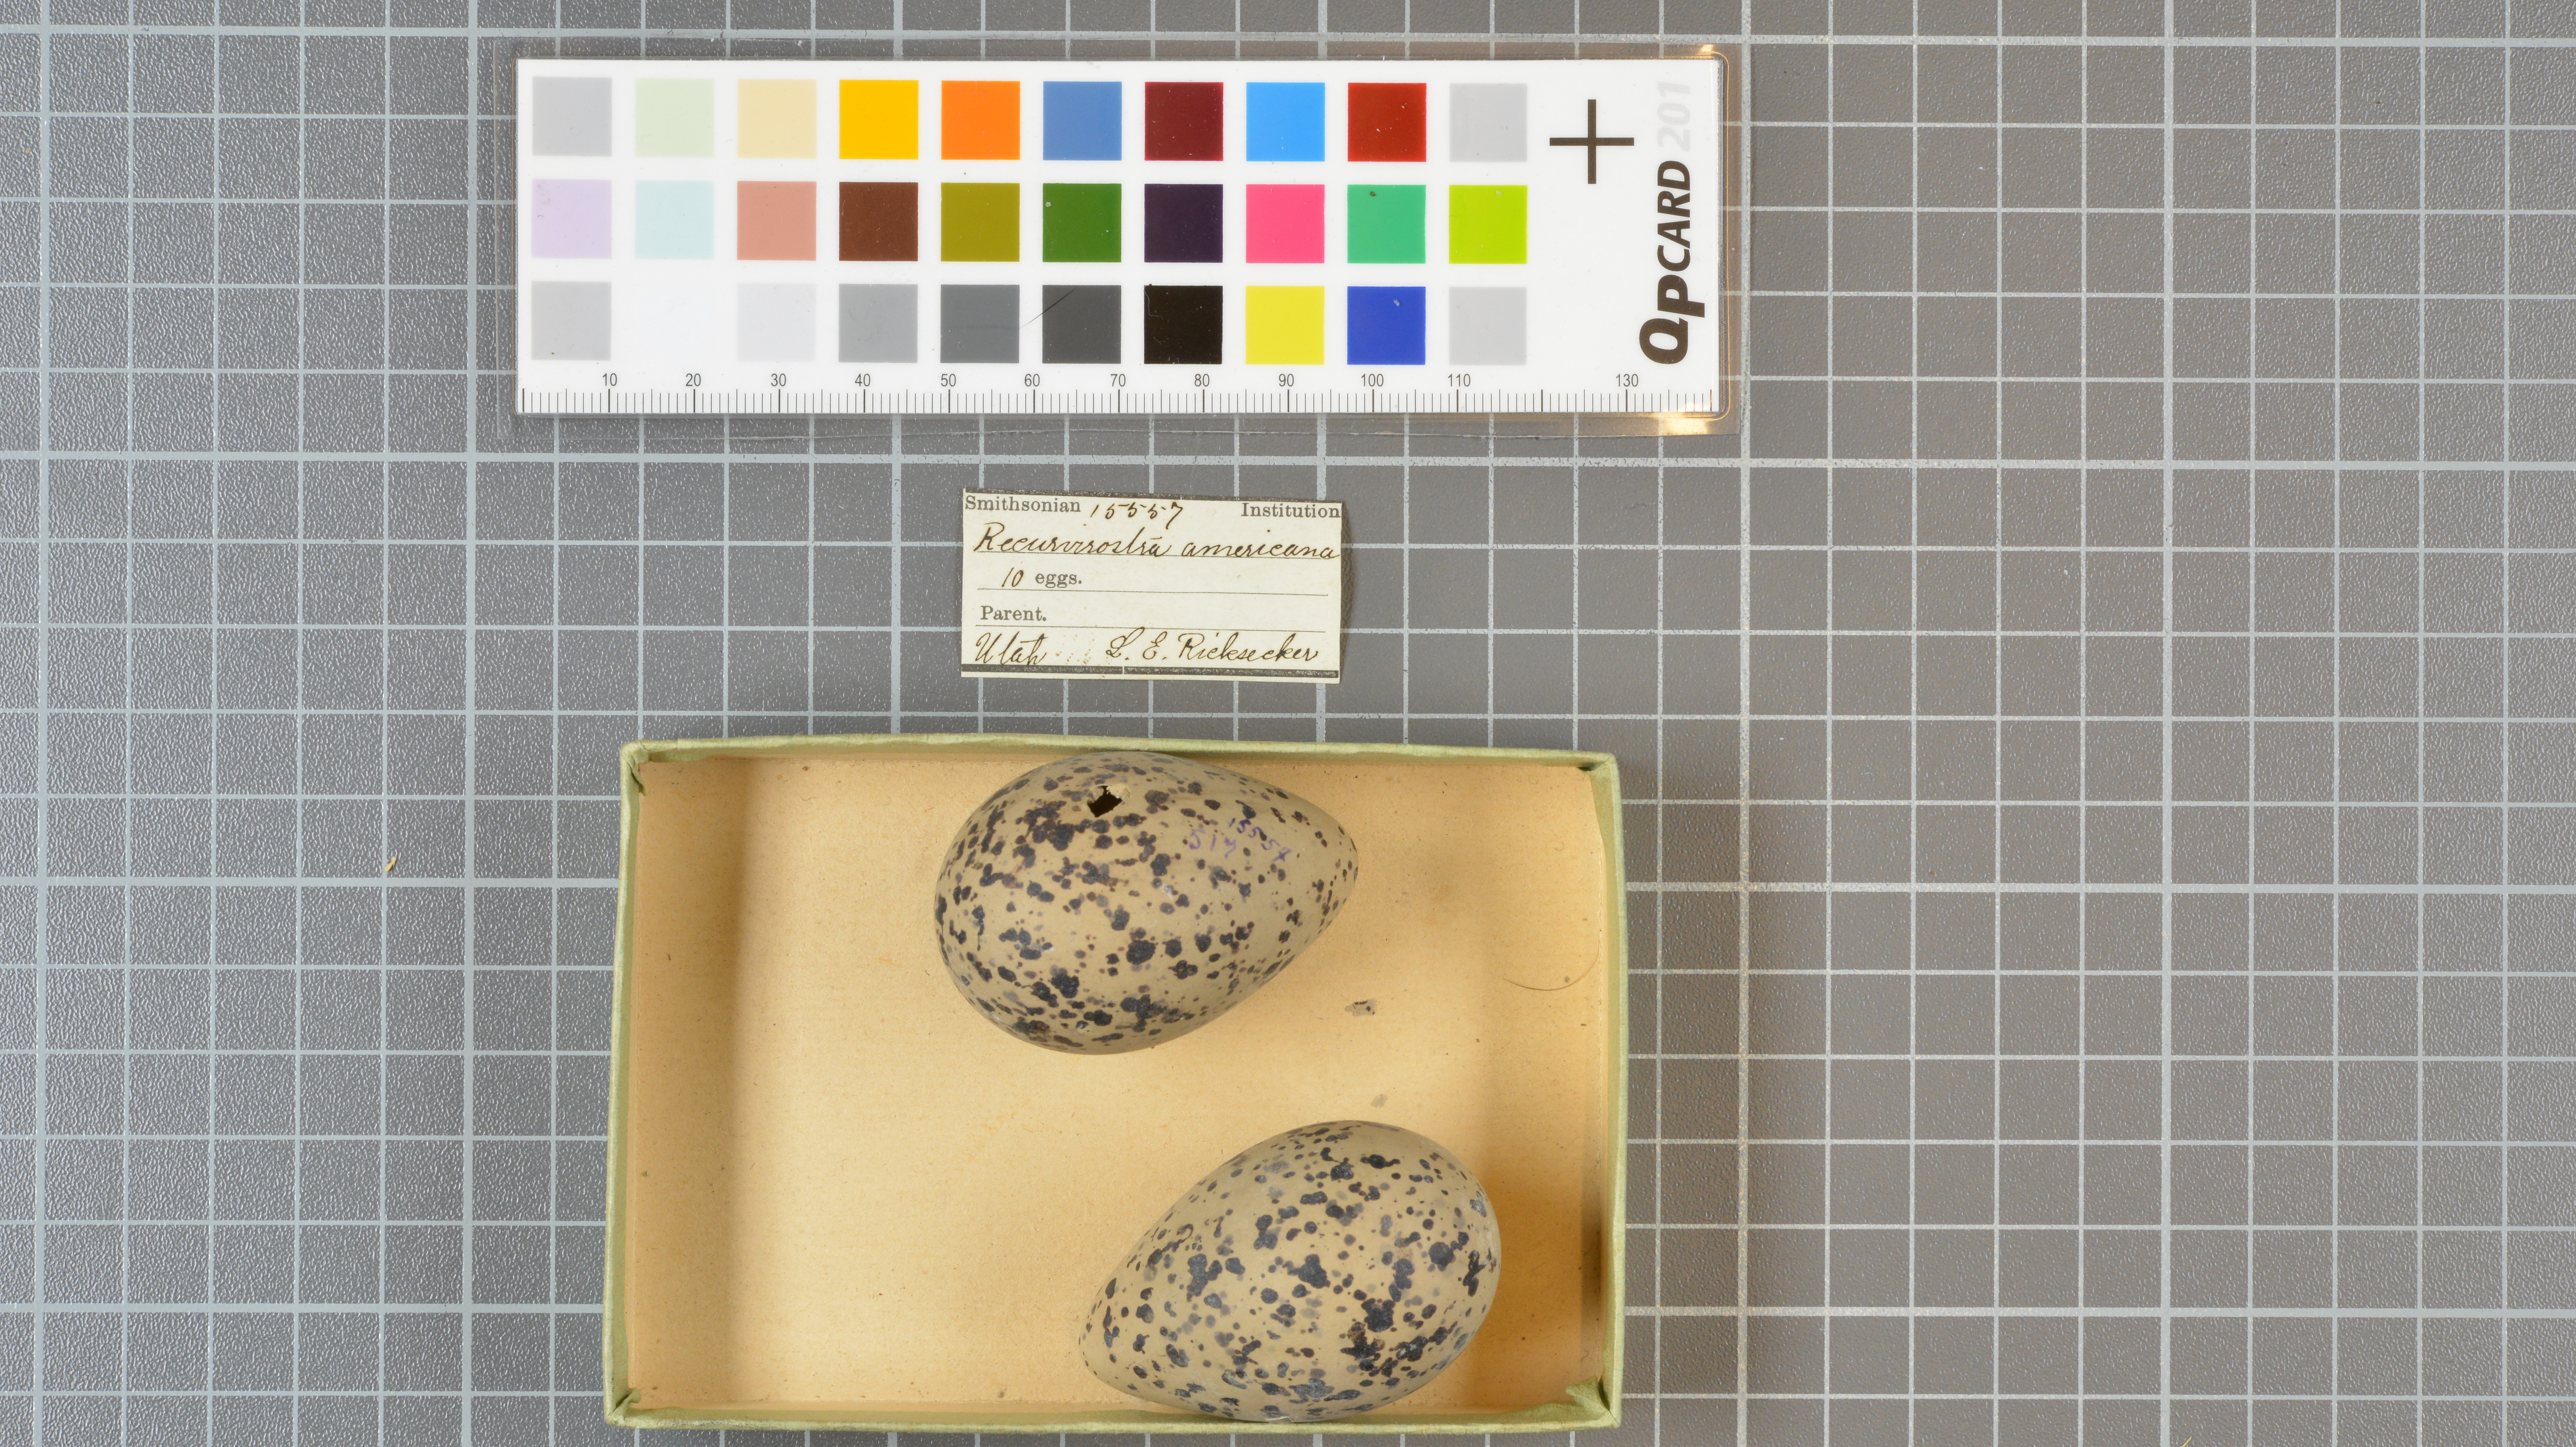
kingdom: Animalia
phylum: Chordata
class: Aves
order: Charadriiformes
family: Recurvirostridae
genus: Recurvirostra
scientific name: Recurvirostra americana
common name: American avocet
